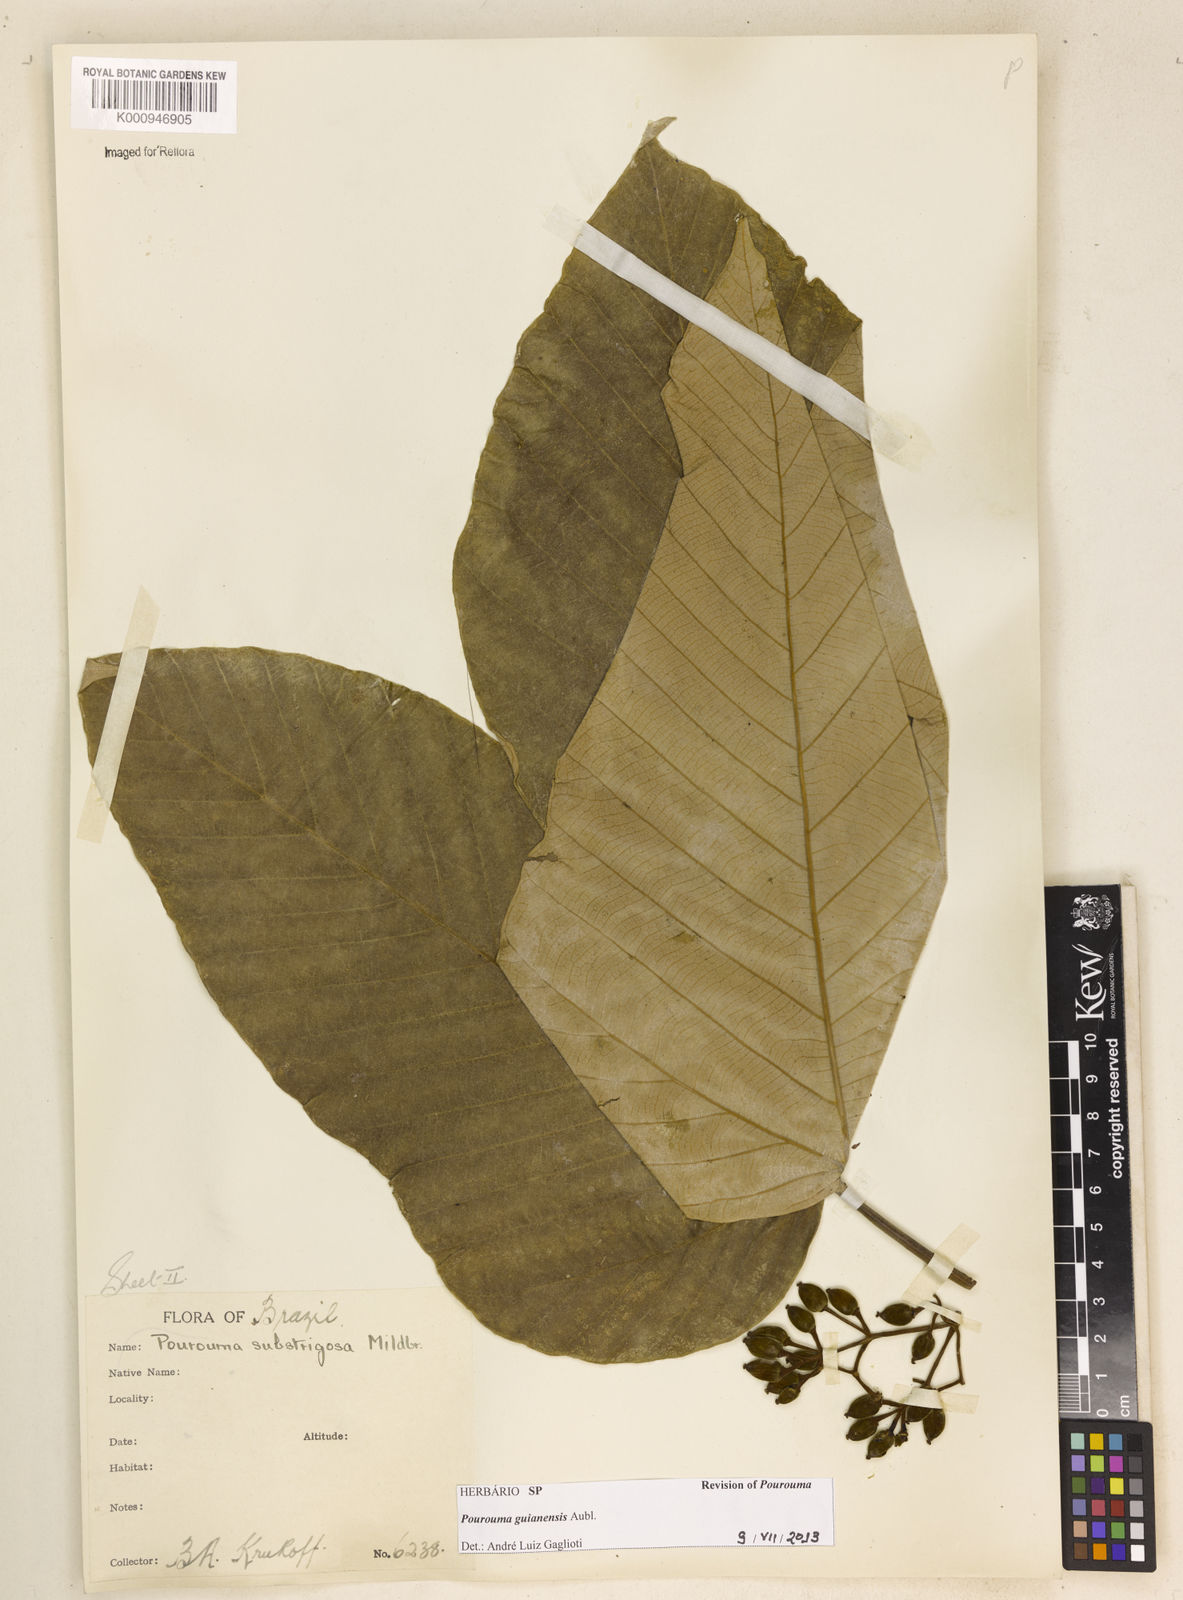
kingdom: Plantae
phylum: Tracheophyta
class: Magnoliopsida
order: Rosales
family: Urticaceae
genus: Pourouma
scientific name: Pourouma guianensis
